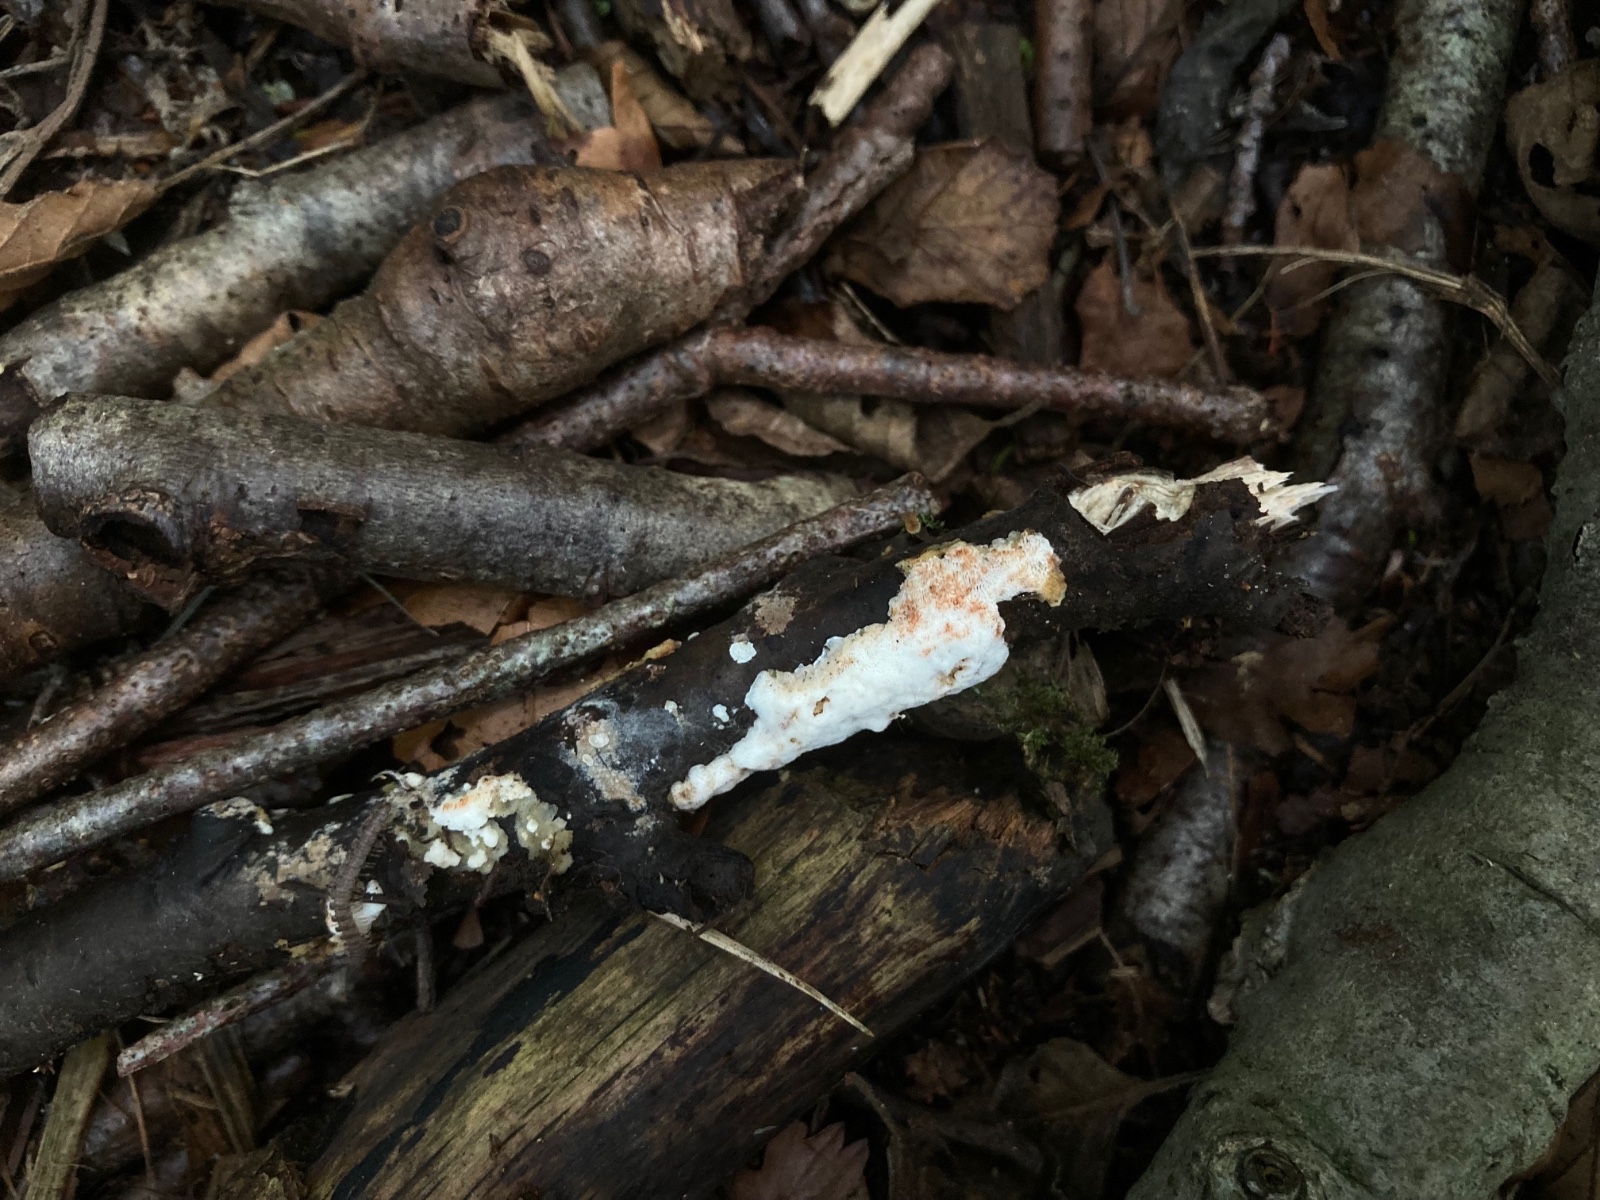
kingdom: Fungi
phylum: Basidiomycota
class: Agaricomycetes
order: Polyporales
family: Meripilaceae
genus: Rigidoporus
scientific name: Rigidoporus sanguinolentus
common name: blod-skorpeporesvamp
